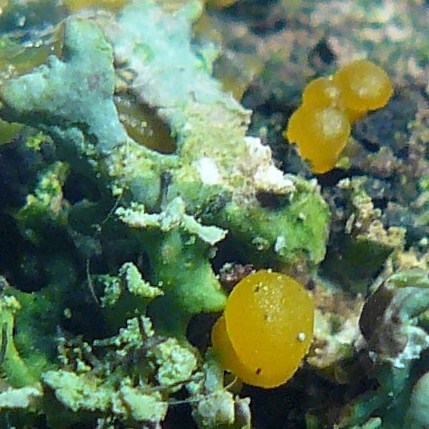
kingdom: Fungi
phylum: Basidiomycota
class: Dacrymycetes
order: Dacrymycetales
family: Dacrymycetaceae
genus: Dacrymyces
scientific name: Dacrymyces lacrymalis
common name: rynket tåresvamp
